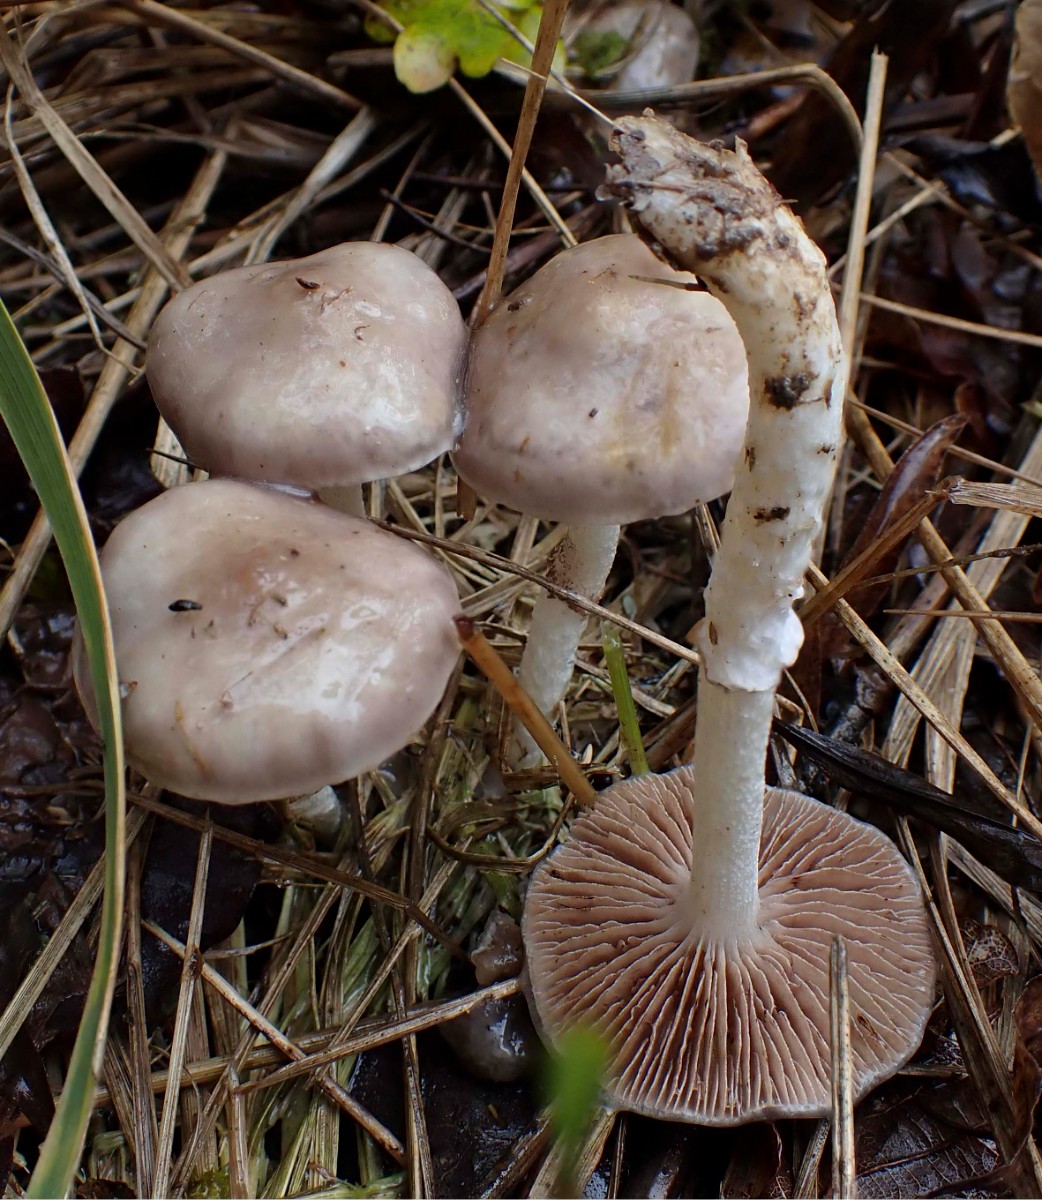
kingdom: Fungi
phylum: Basidiomycota
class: Agaricomycetes
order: Agaricales
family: Strophariaceae
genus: Stropharia
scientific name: Stropharia inuncta
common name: lillabrun bredblad
